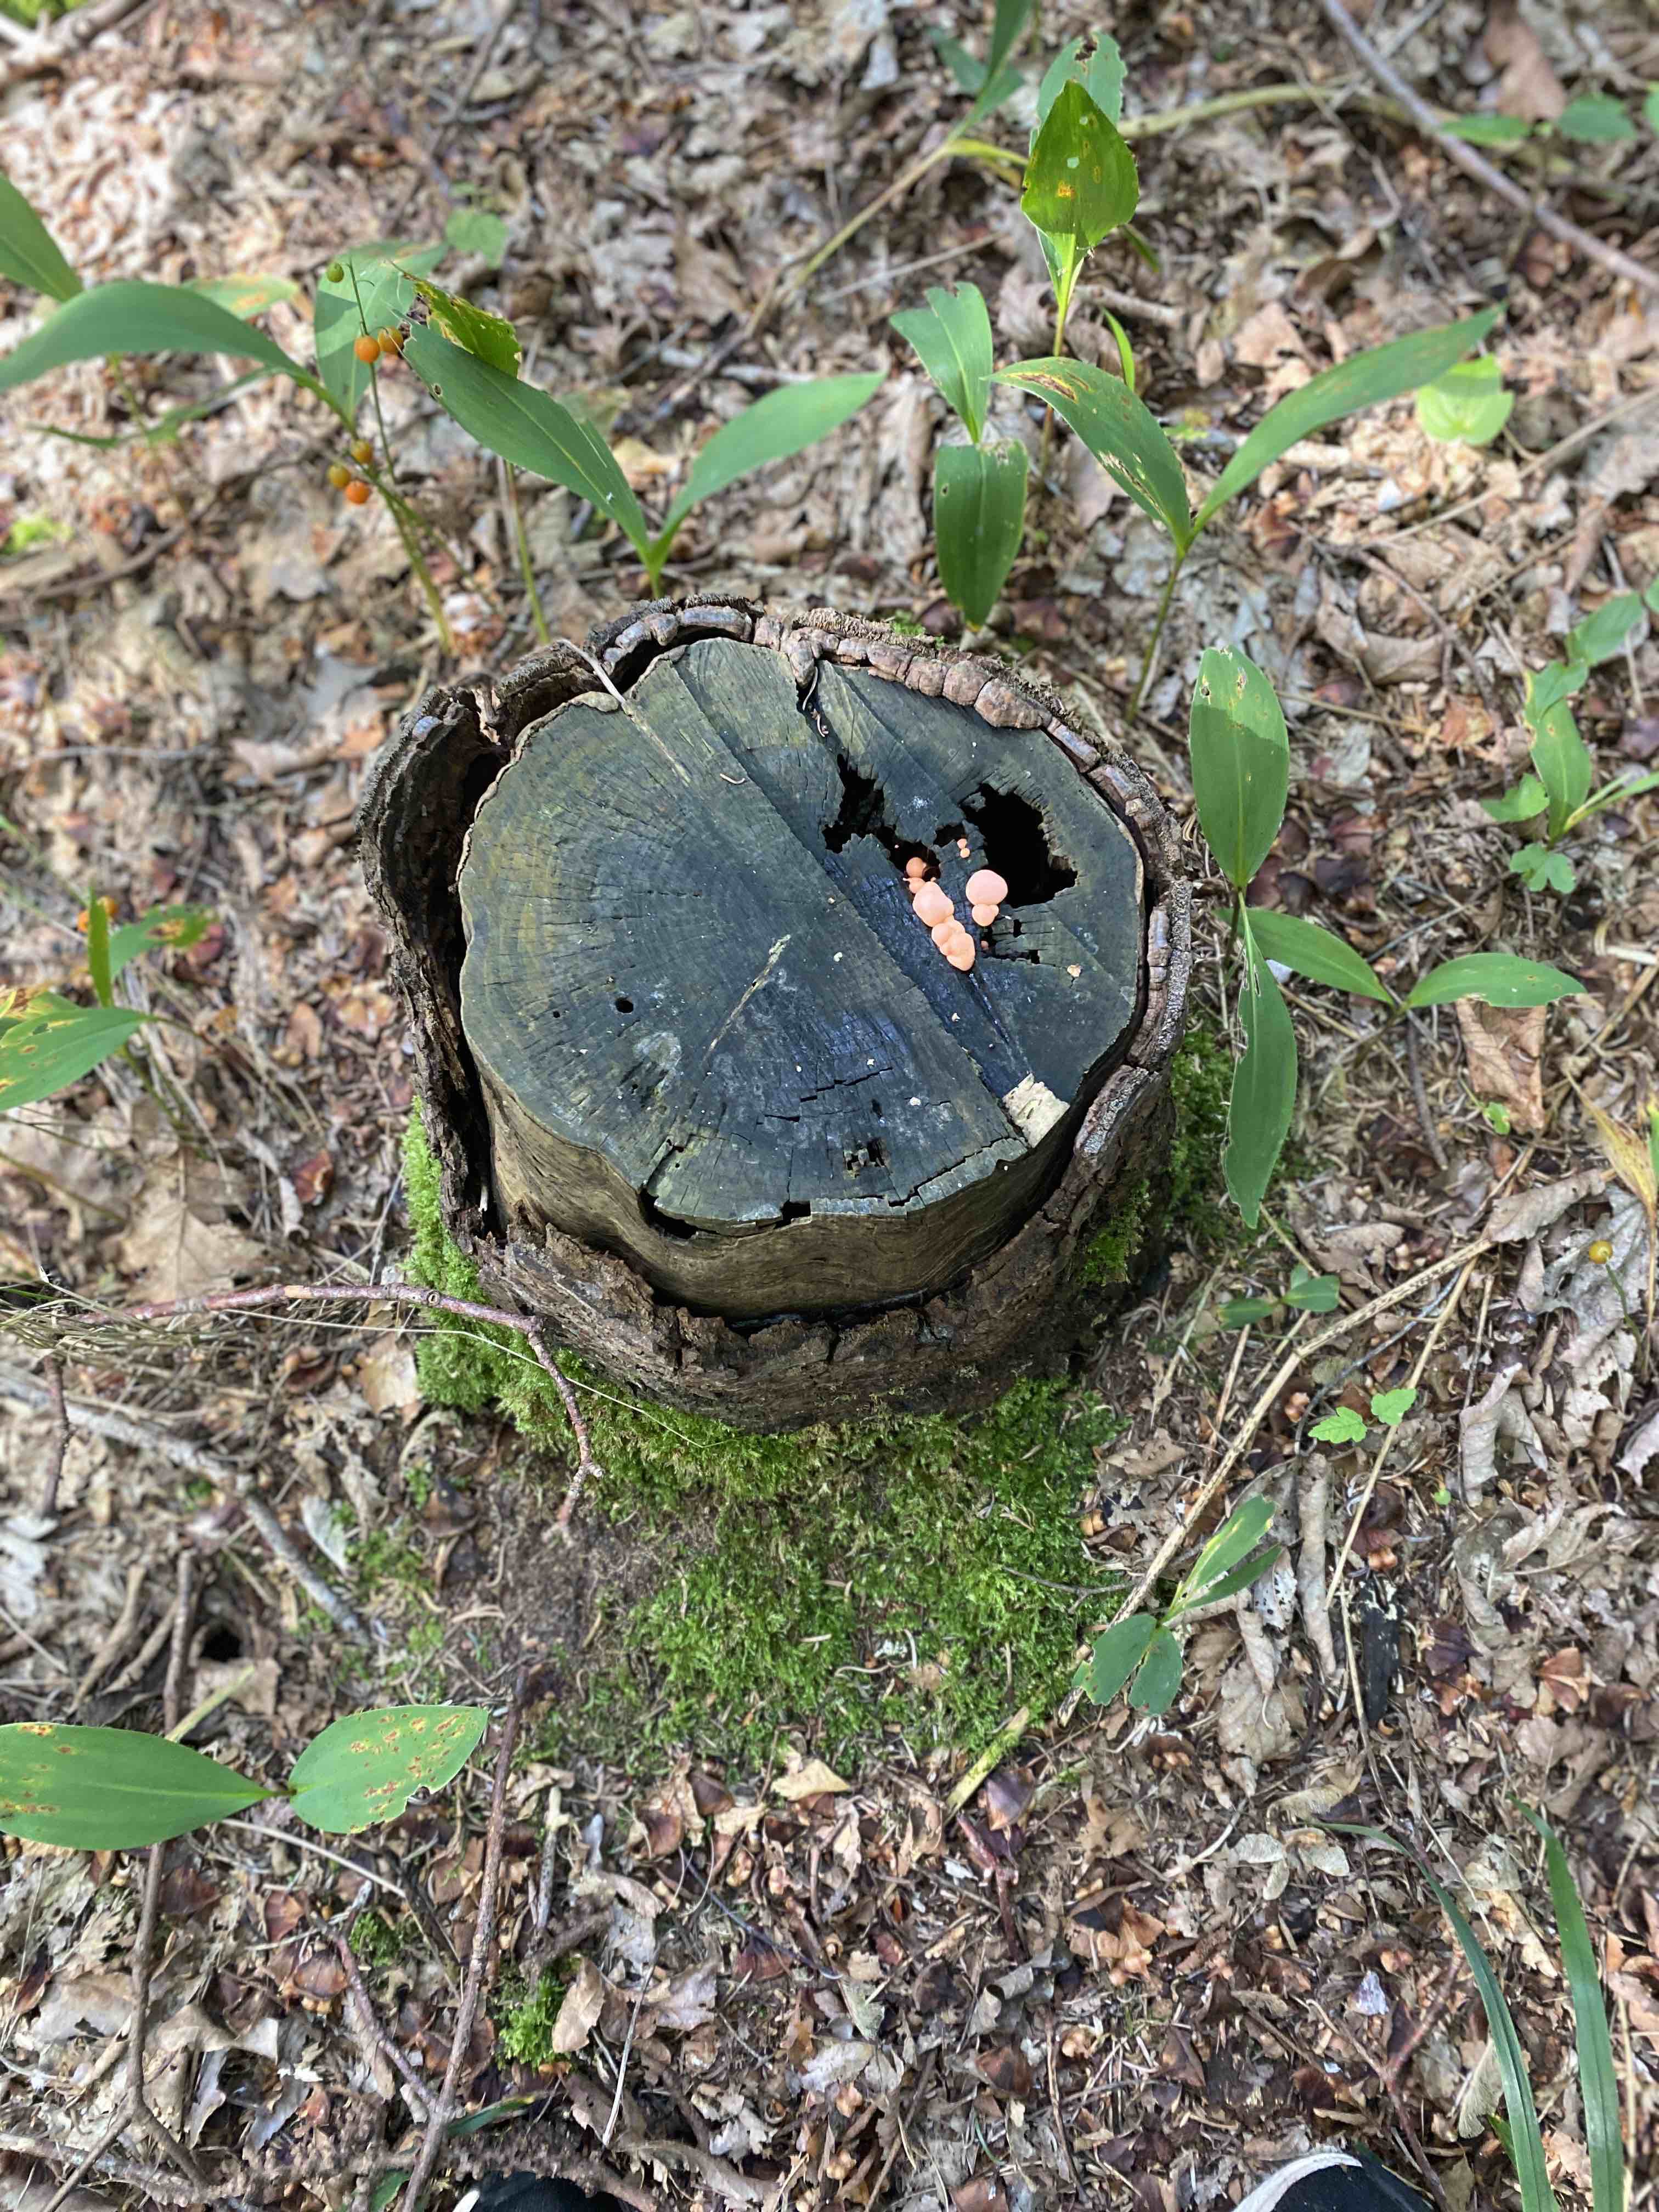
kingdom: Protozoa
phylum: Mycetozoa
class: Myxomycetes
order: Cribrariales
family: Tubiferaceae
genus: Lycogala
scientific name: Lycogala epidendrum
